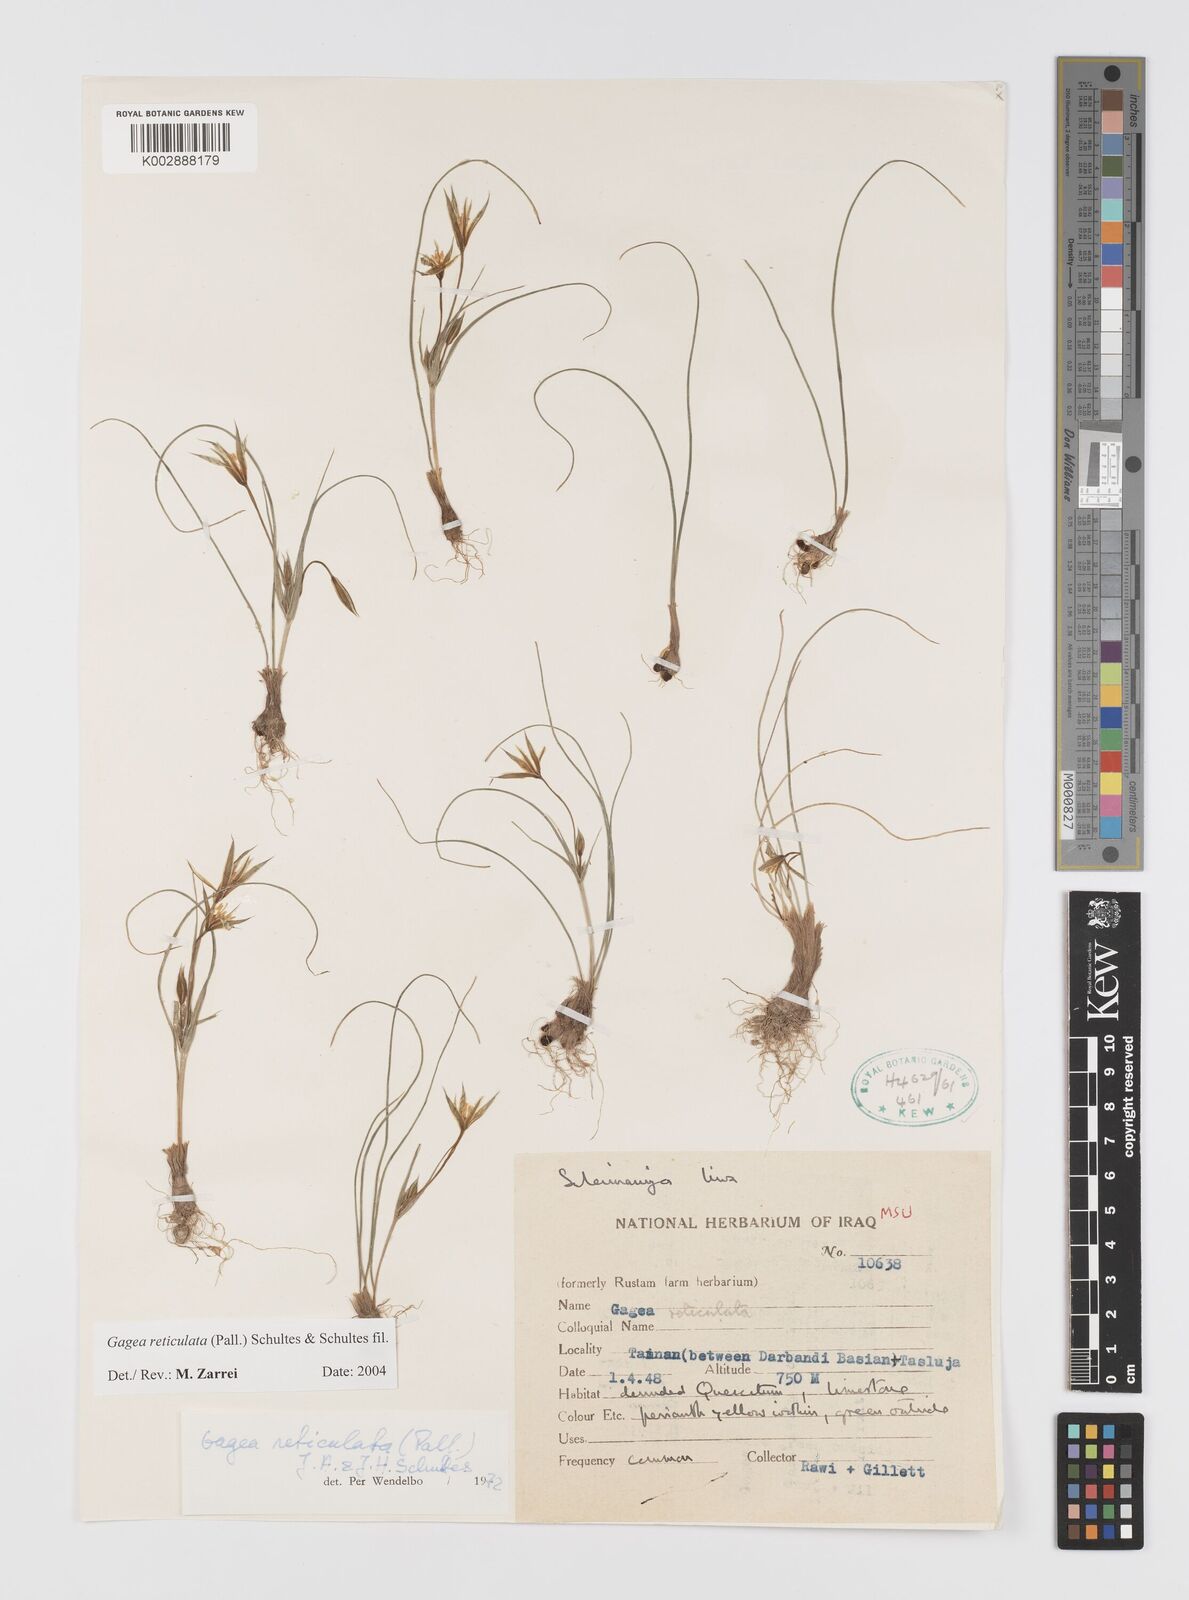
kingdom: Plantae
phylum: Tracheophyta
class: Liliopsida
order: Liliales
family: Liliaceae
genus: Gagea
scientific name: Gagea reticulata
